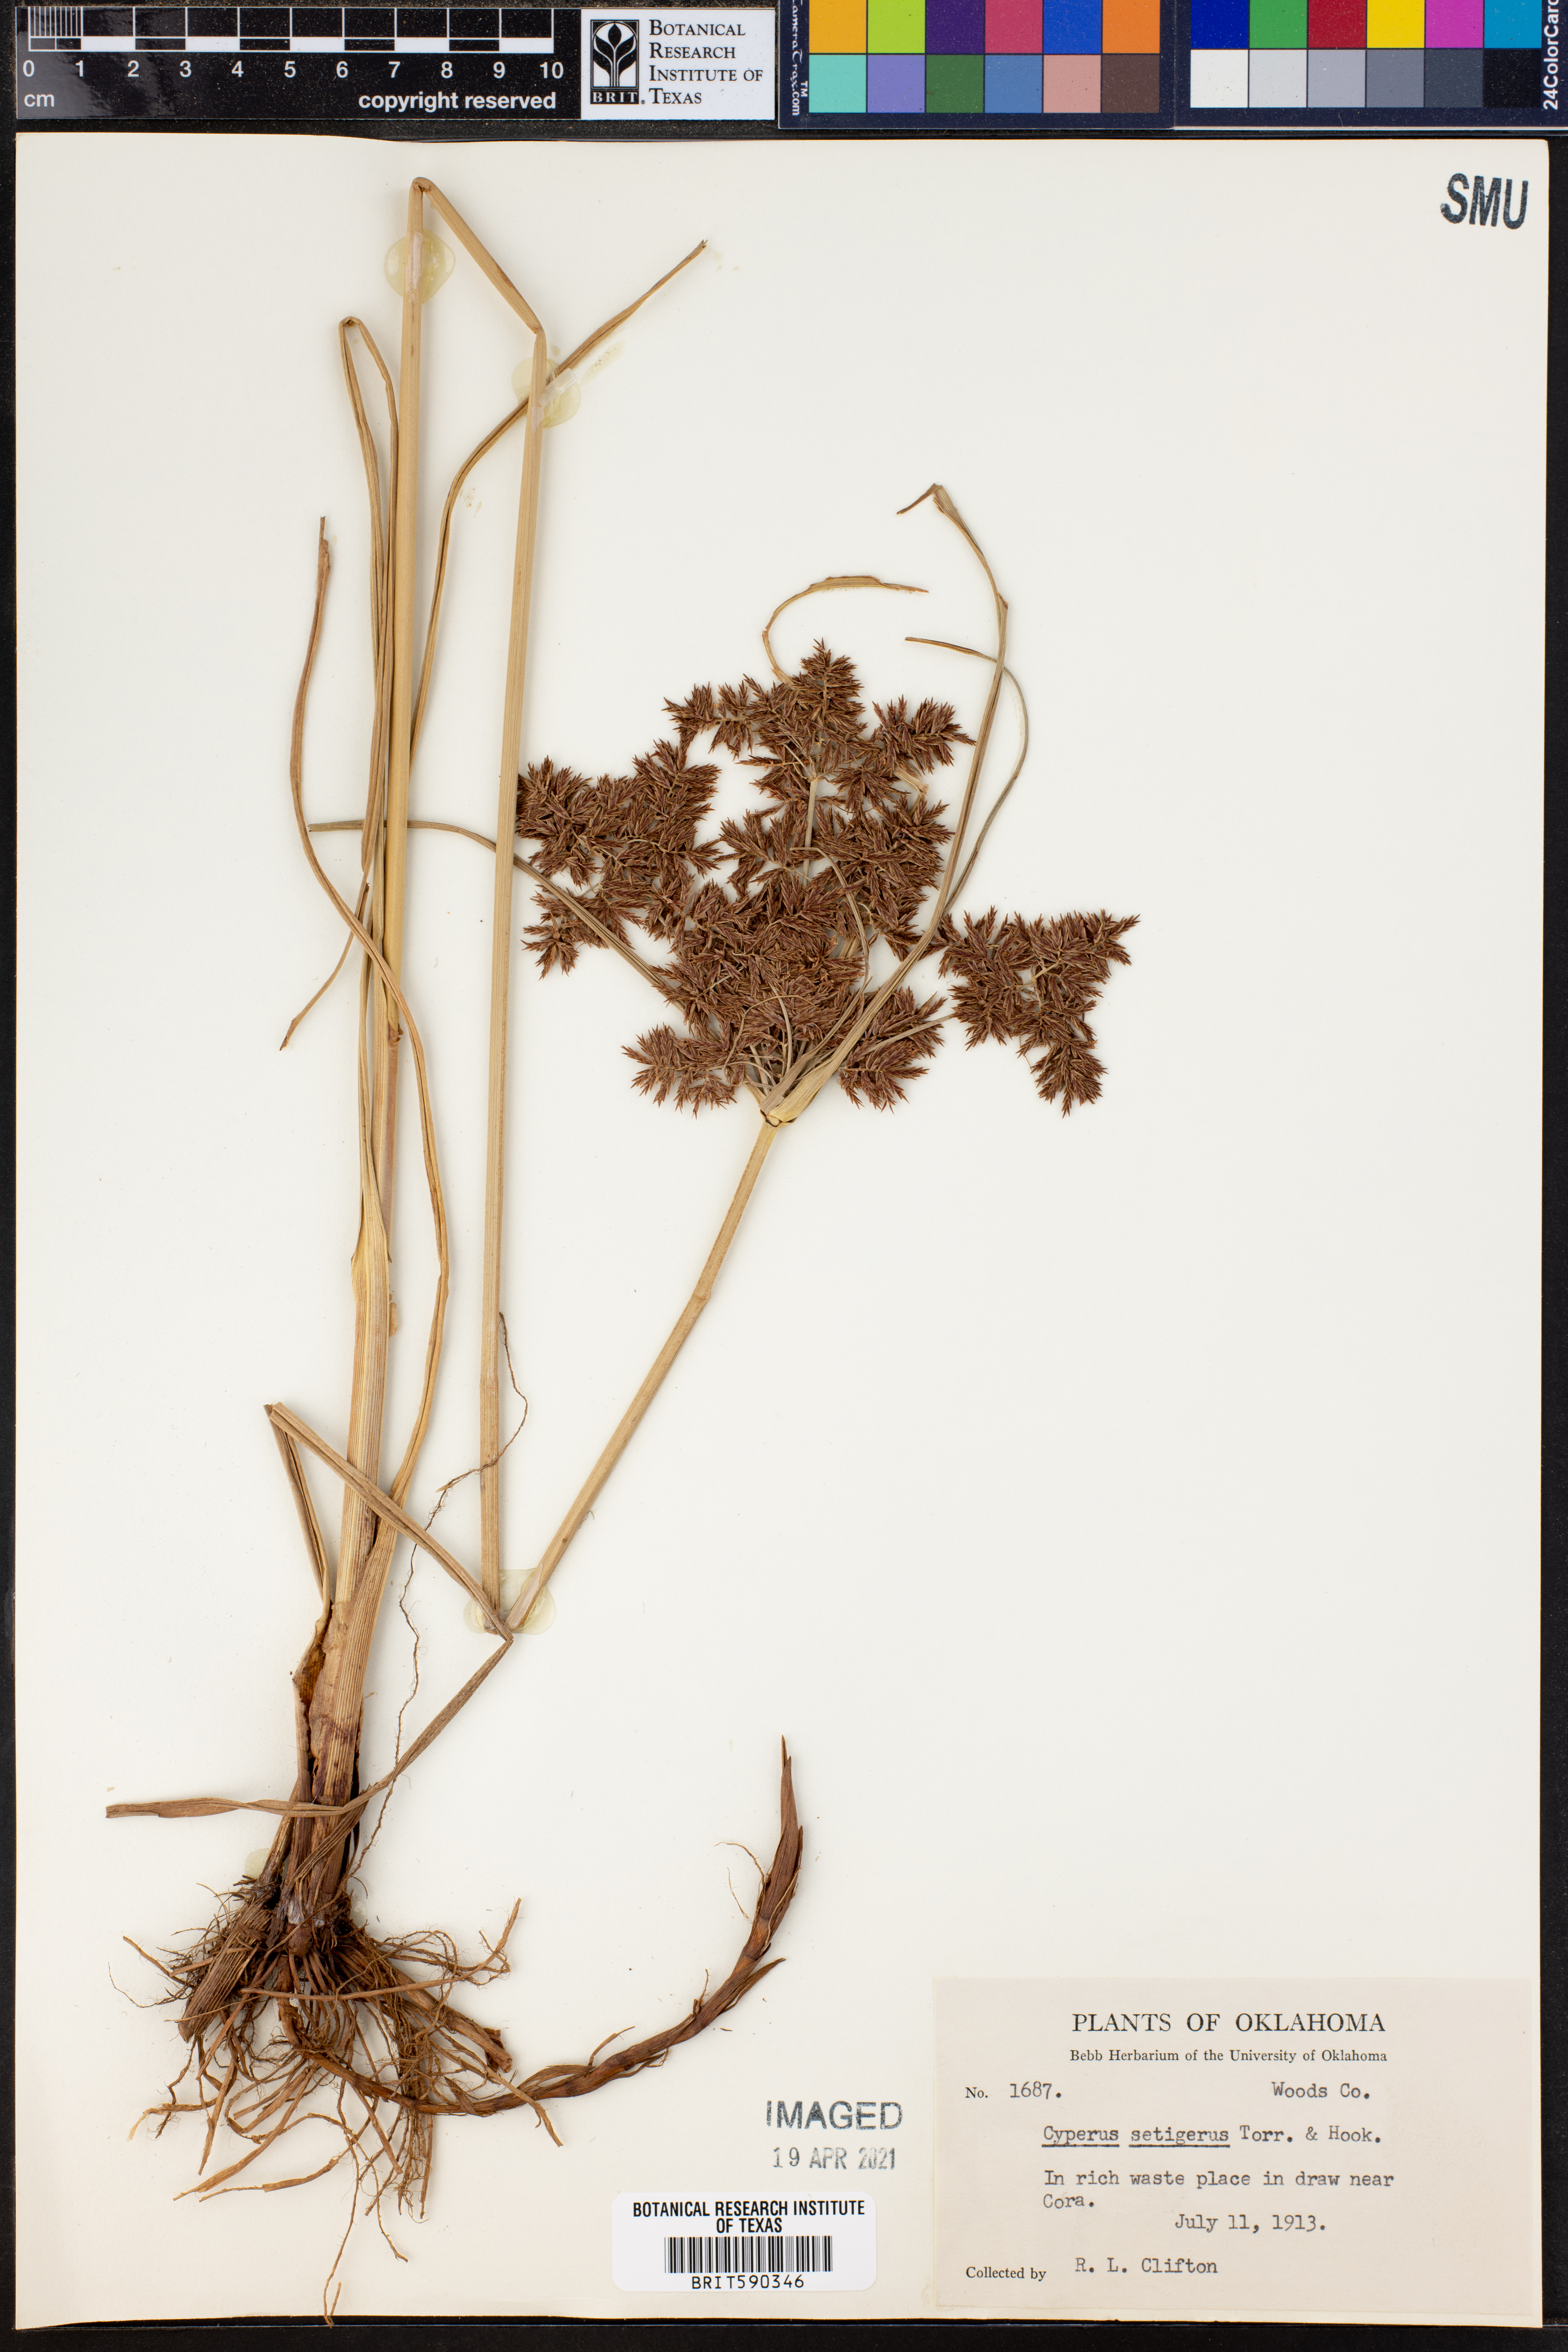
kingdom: Plantae
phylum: Tracheophyta
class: Liliopsida
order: Poales
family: Cyperaceae
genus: Cyperus
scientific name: Cyperus setigerus
